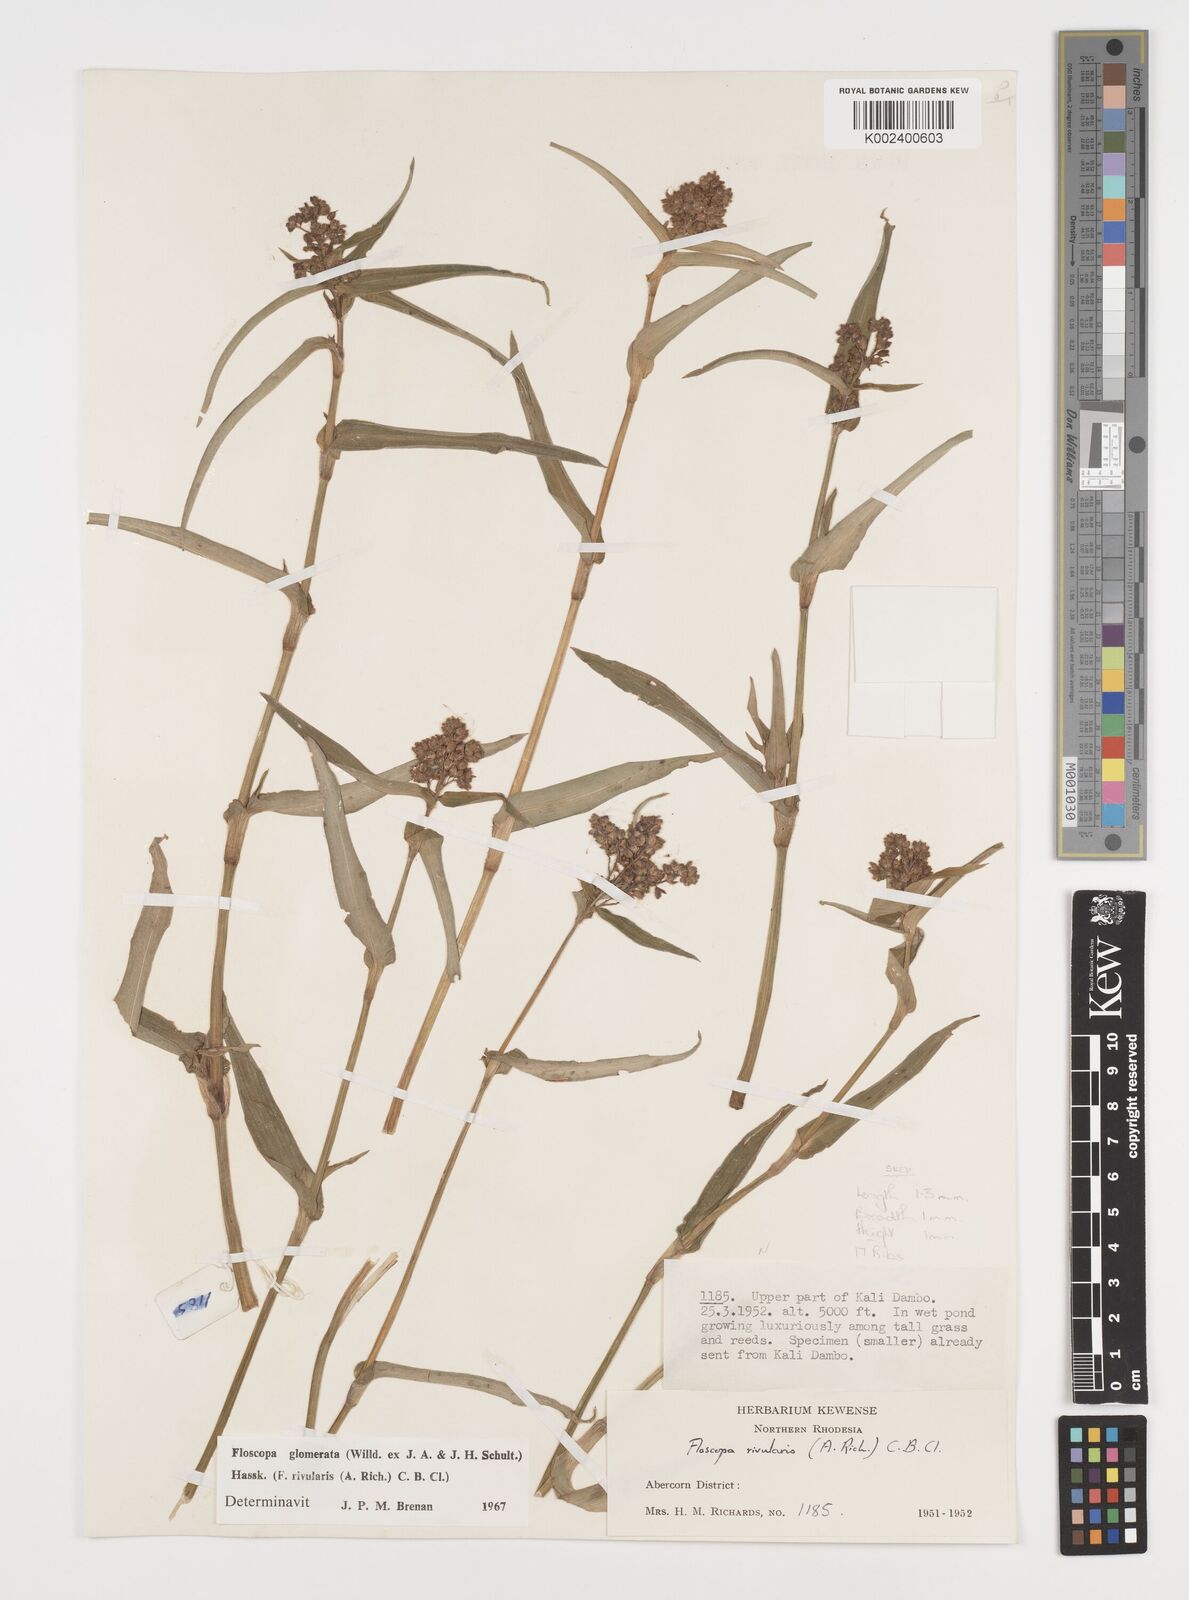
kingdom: Plantae
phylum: Tracheophyta
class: Liliopsida
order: Commelinales
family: Commelinaceae
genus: Floscopa
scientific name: Floscopa glomerata
